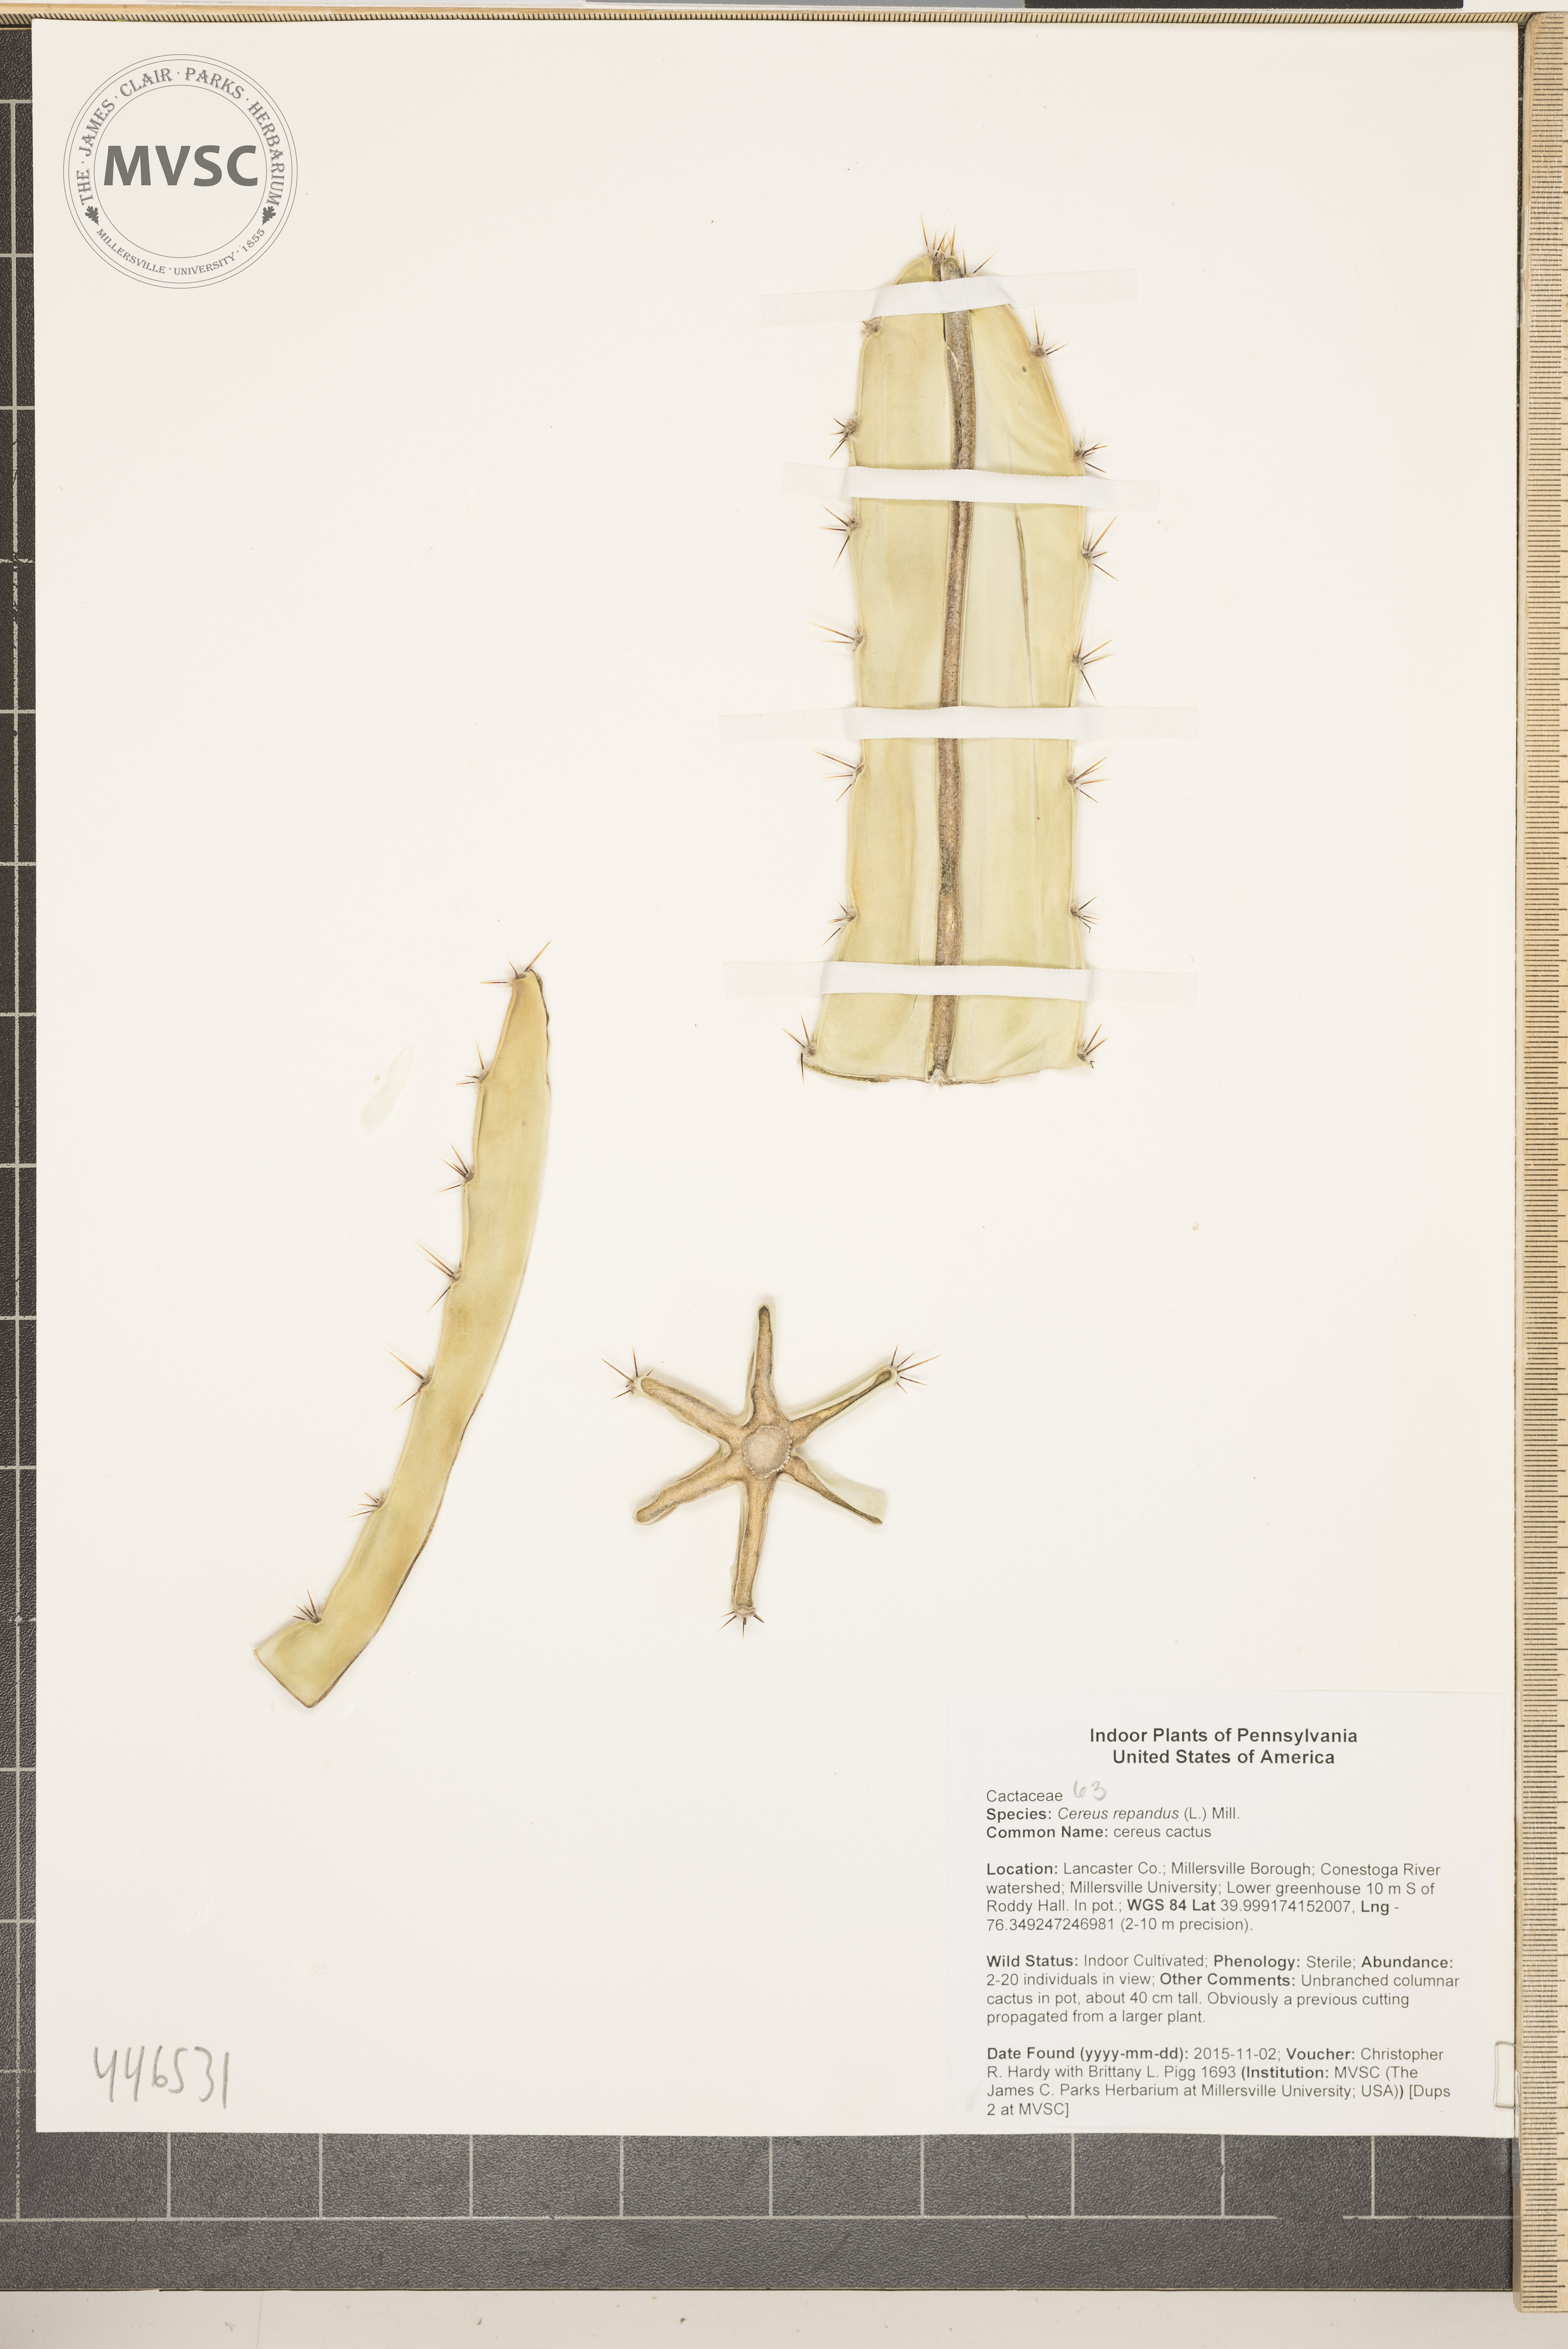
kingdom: Plantae
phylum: Tracheophyta
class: Magnoliopsida
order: Caryophyllales
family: Cactaceae
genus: Cereus
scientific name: Cereus repandus
